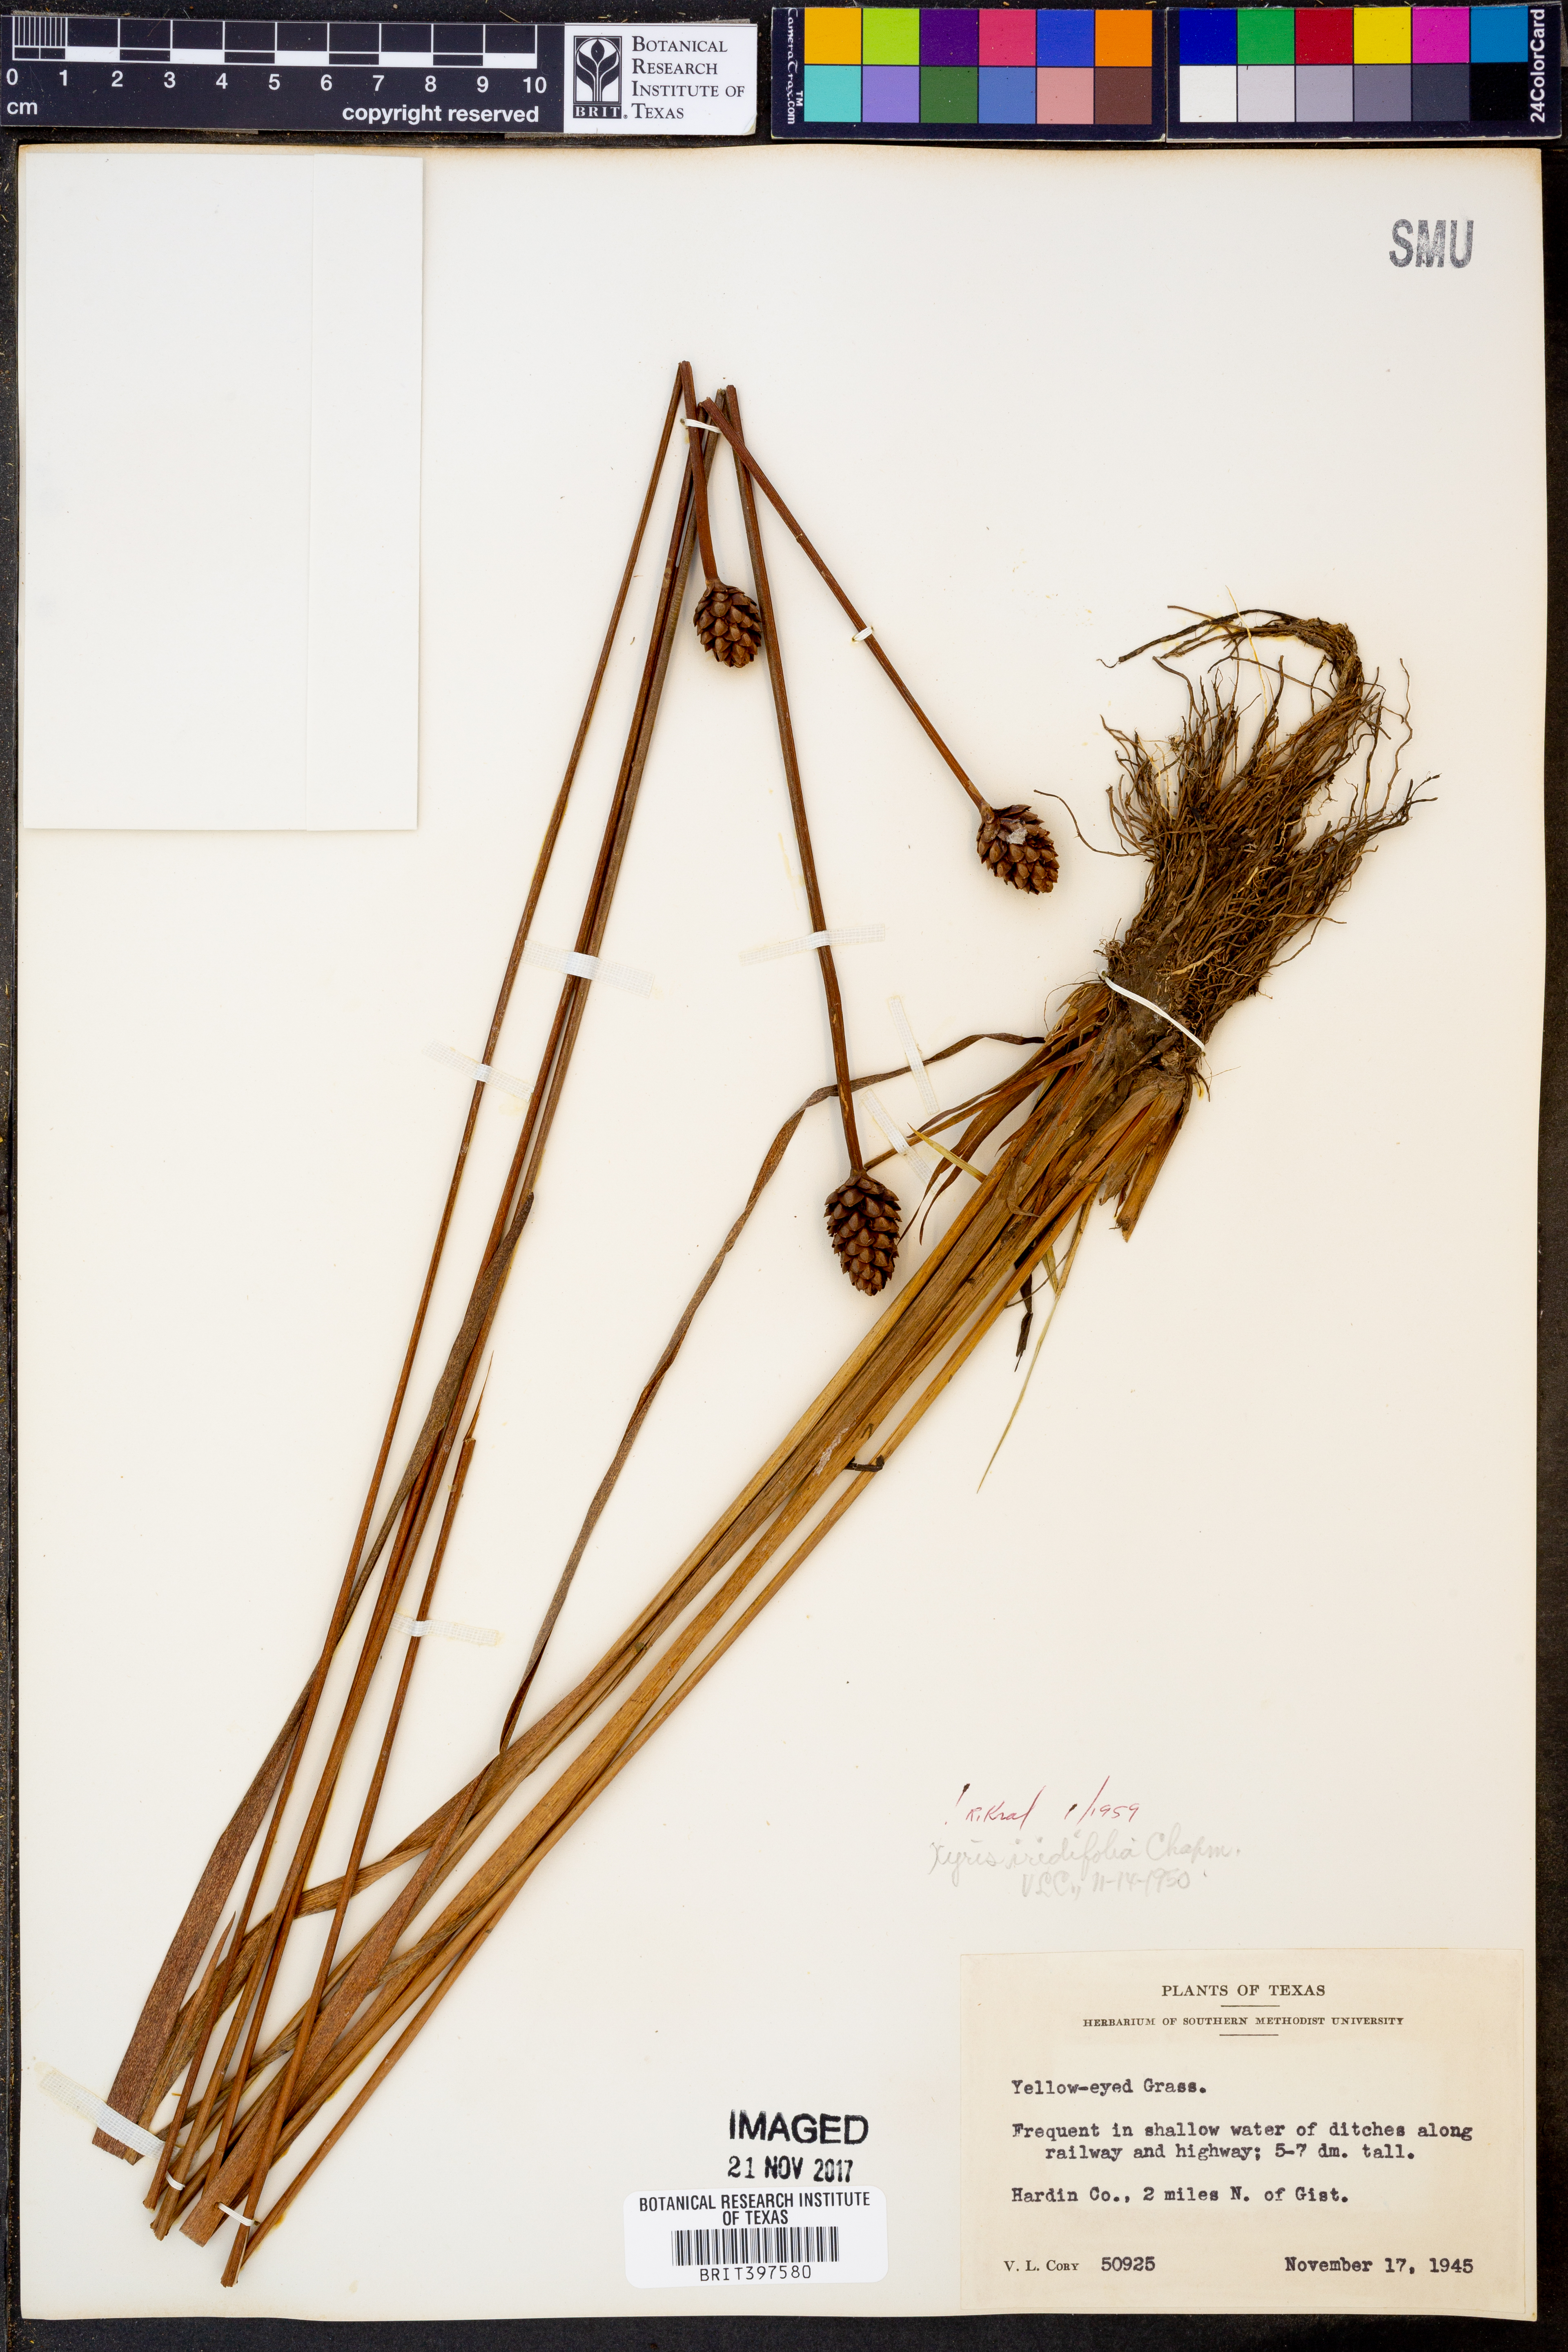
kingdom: Plantae
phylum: Tracheophyta
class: Liliopsida
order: Poales
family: Xyridaceae
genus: Xyris
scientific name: Xyris laxifolia
